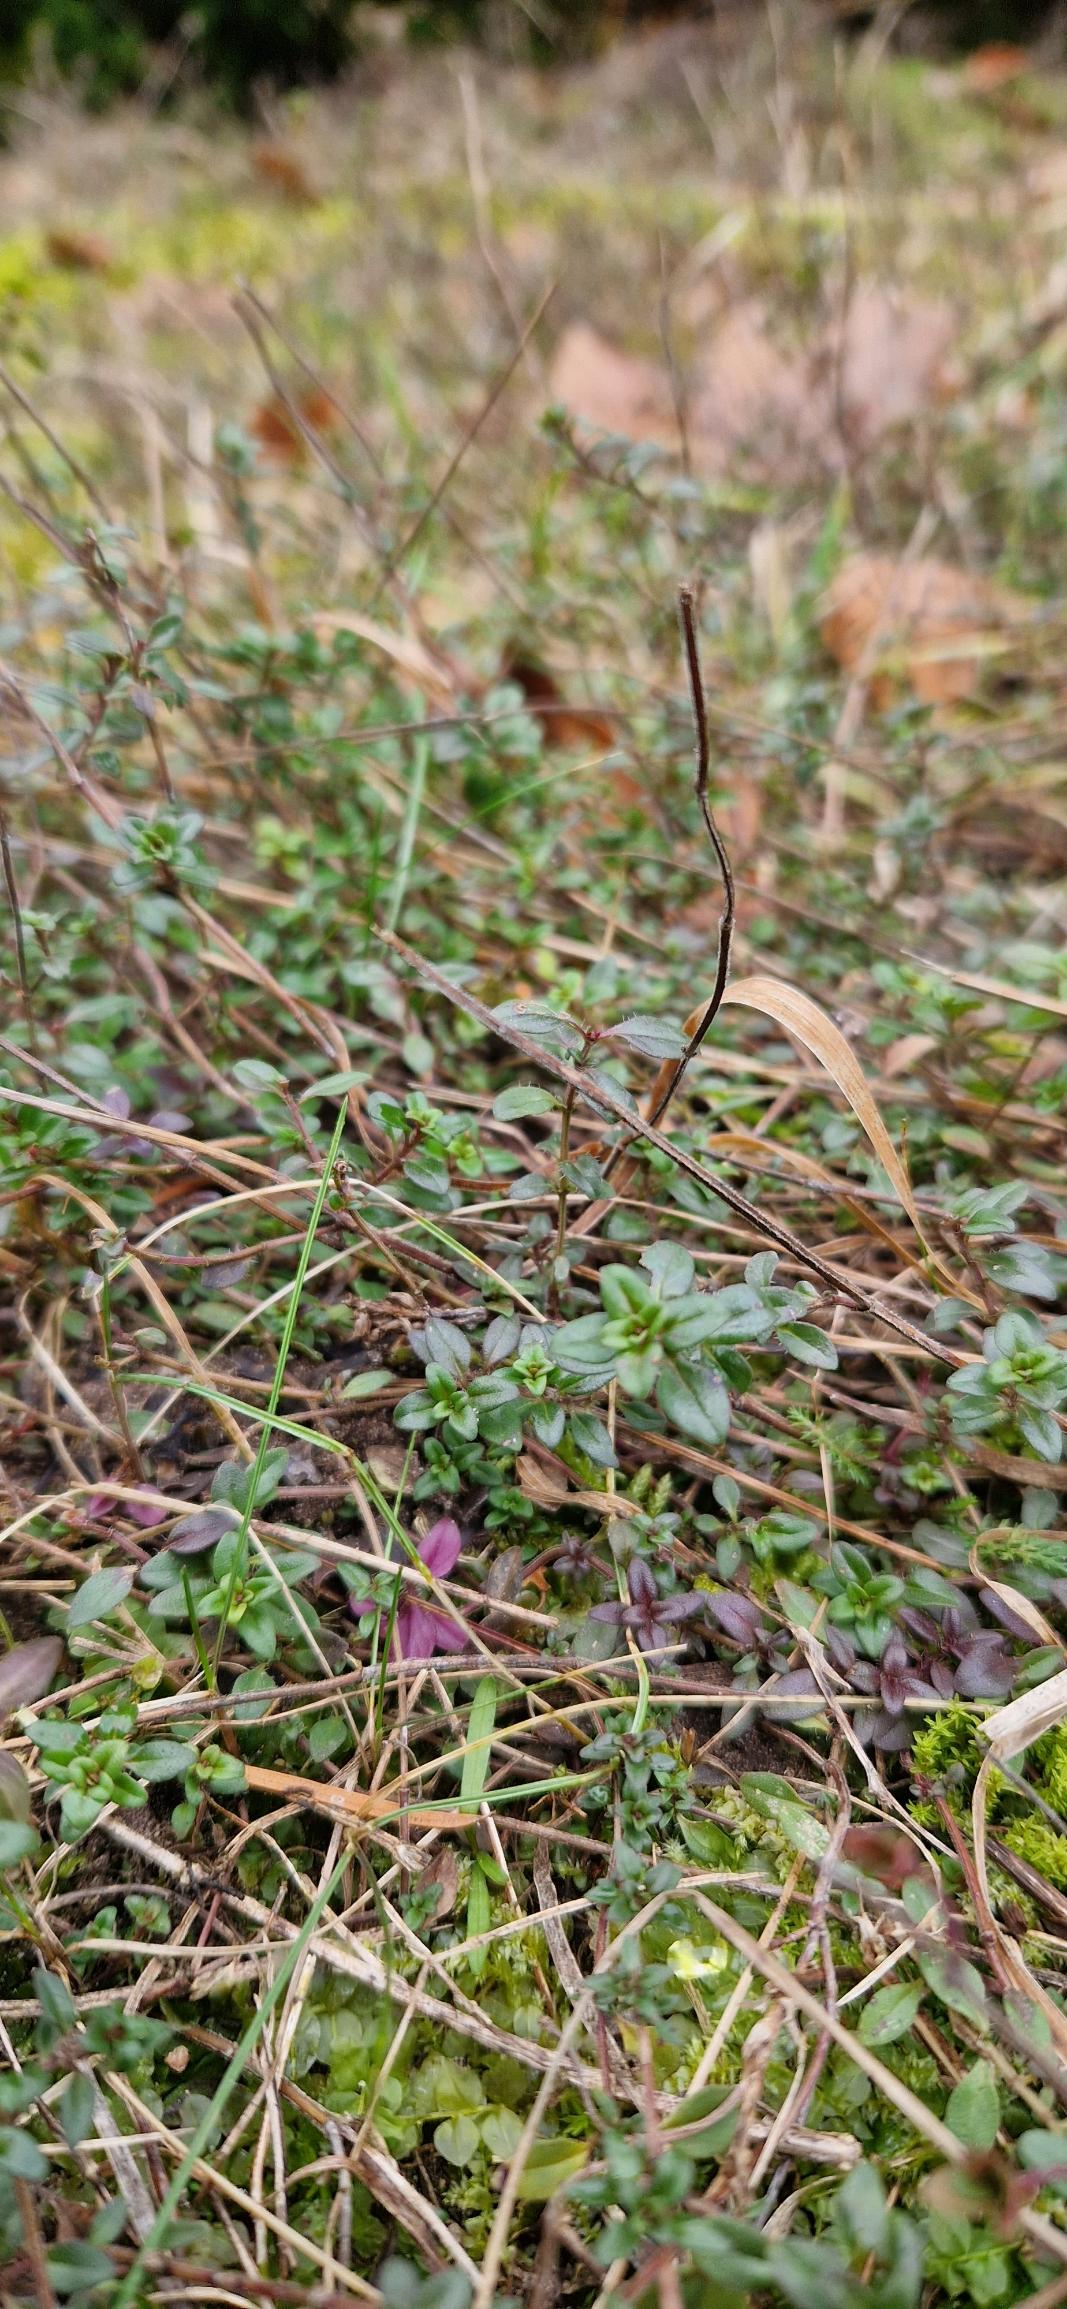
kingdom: Plantae
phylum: Tracheophyta
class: Magnoliopsida
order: Lamiales
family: Lamiaceae
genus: Thymus
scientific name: Thymus pulegioides
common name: Bredbladet timian
